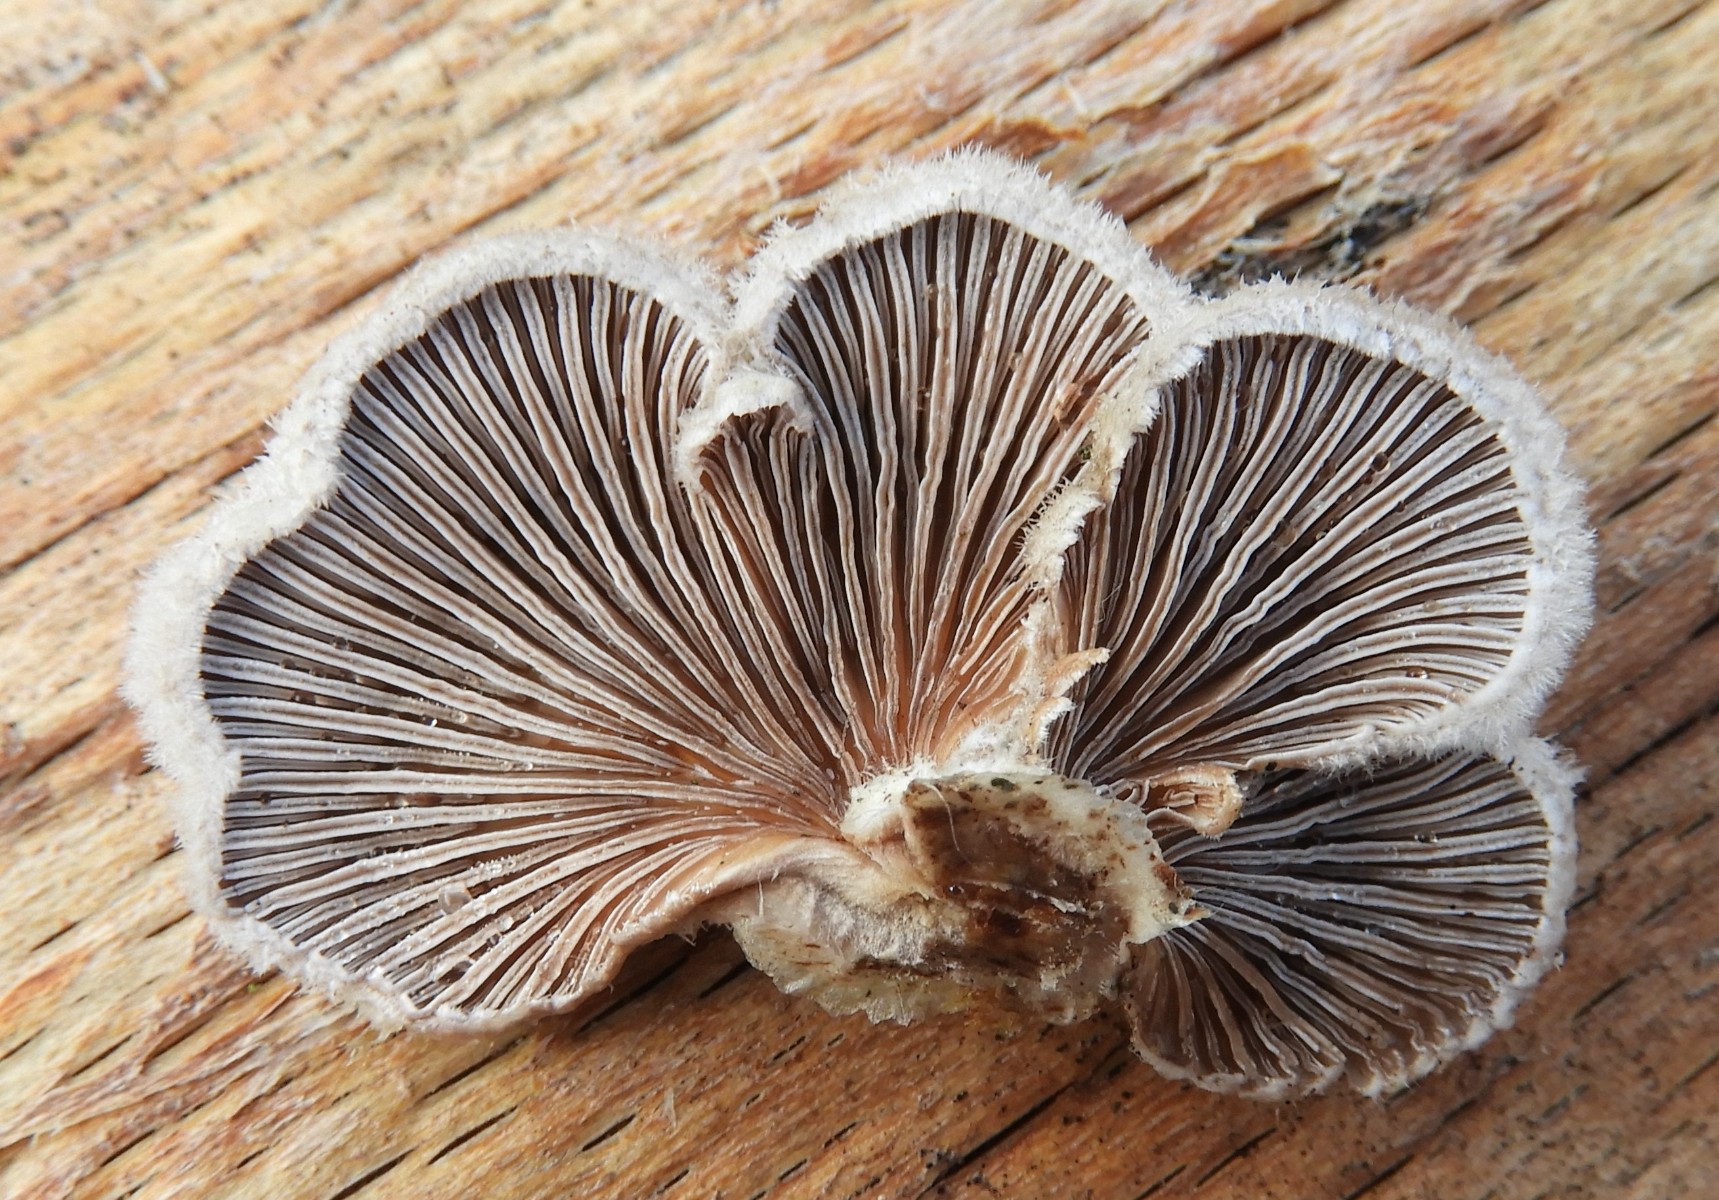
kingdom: Fungi
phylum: Basidiomycota
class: Agaricomycetes
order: Agaricales
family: Schizophyllaceae
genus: Schizophyllum
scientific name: Schizophyllum commune
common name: kløvblad
